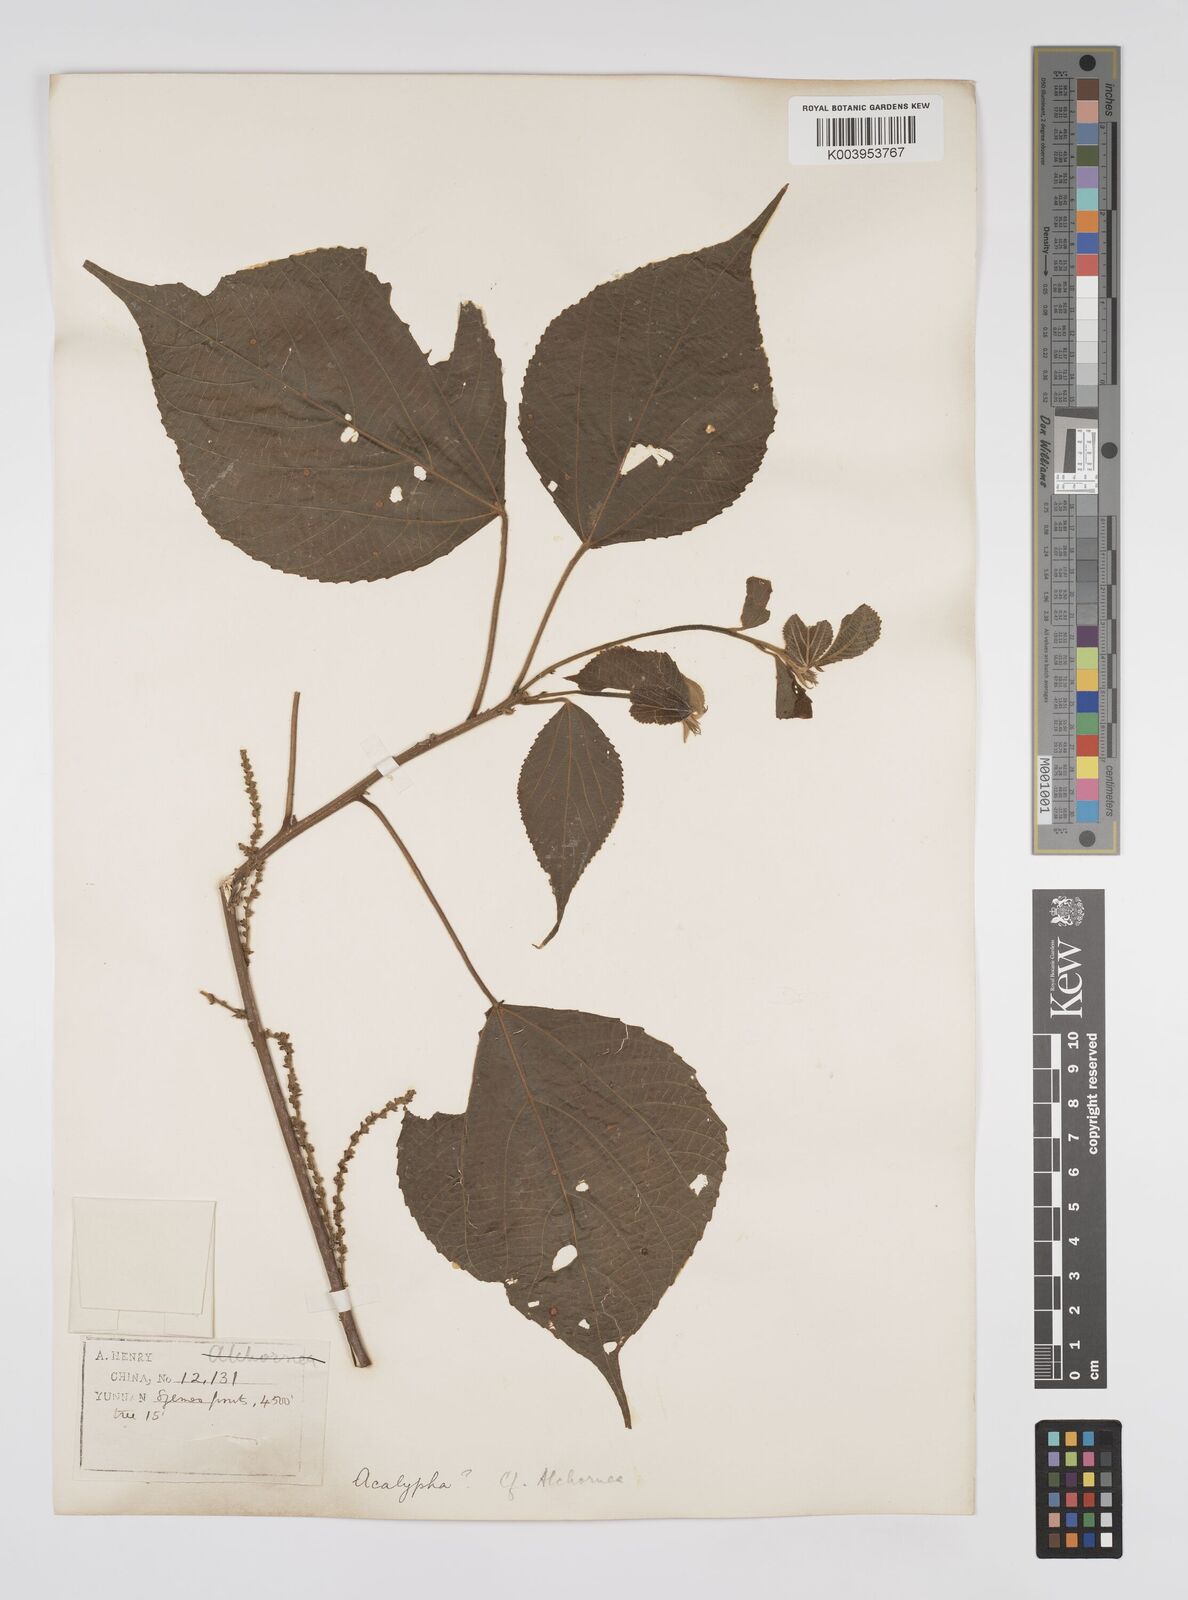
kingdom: Plantae
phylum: Tracheophyta
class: Magnoliopsida
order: Malpighiales
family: Euphorbiaceae
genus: Alchornea
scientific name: Alchornea tiliifolia
